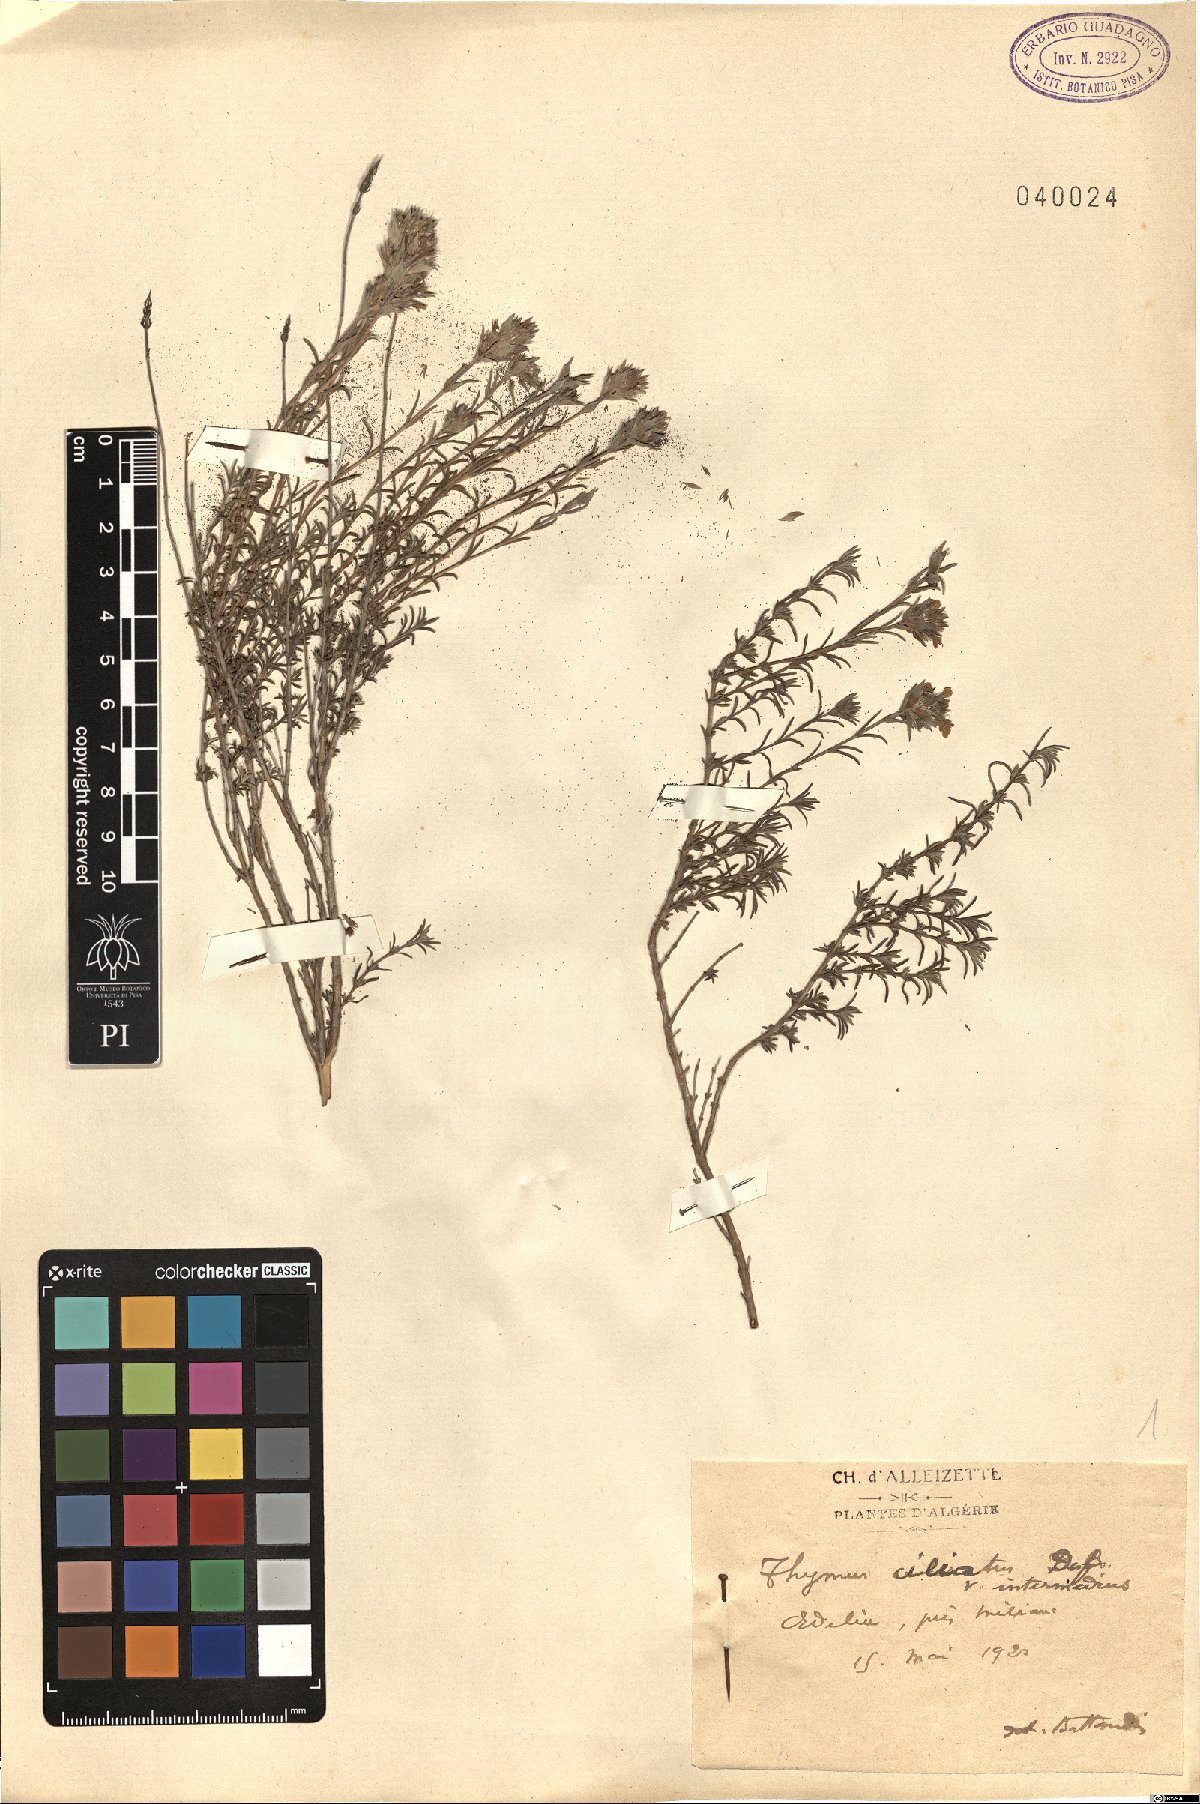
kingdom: Plantae
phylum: Tracheophyta
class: Magnoliopsida
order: Lamiales
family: Lamiaceae
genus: Thymus
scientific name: Thymus praecox
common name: Wild thyme
